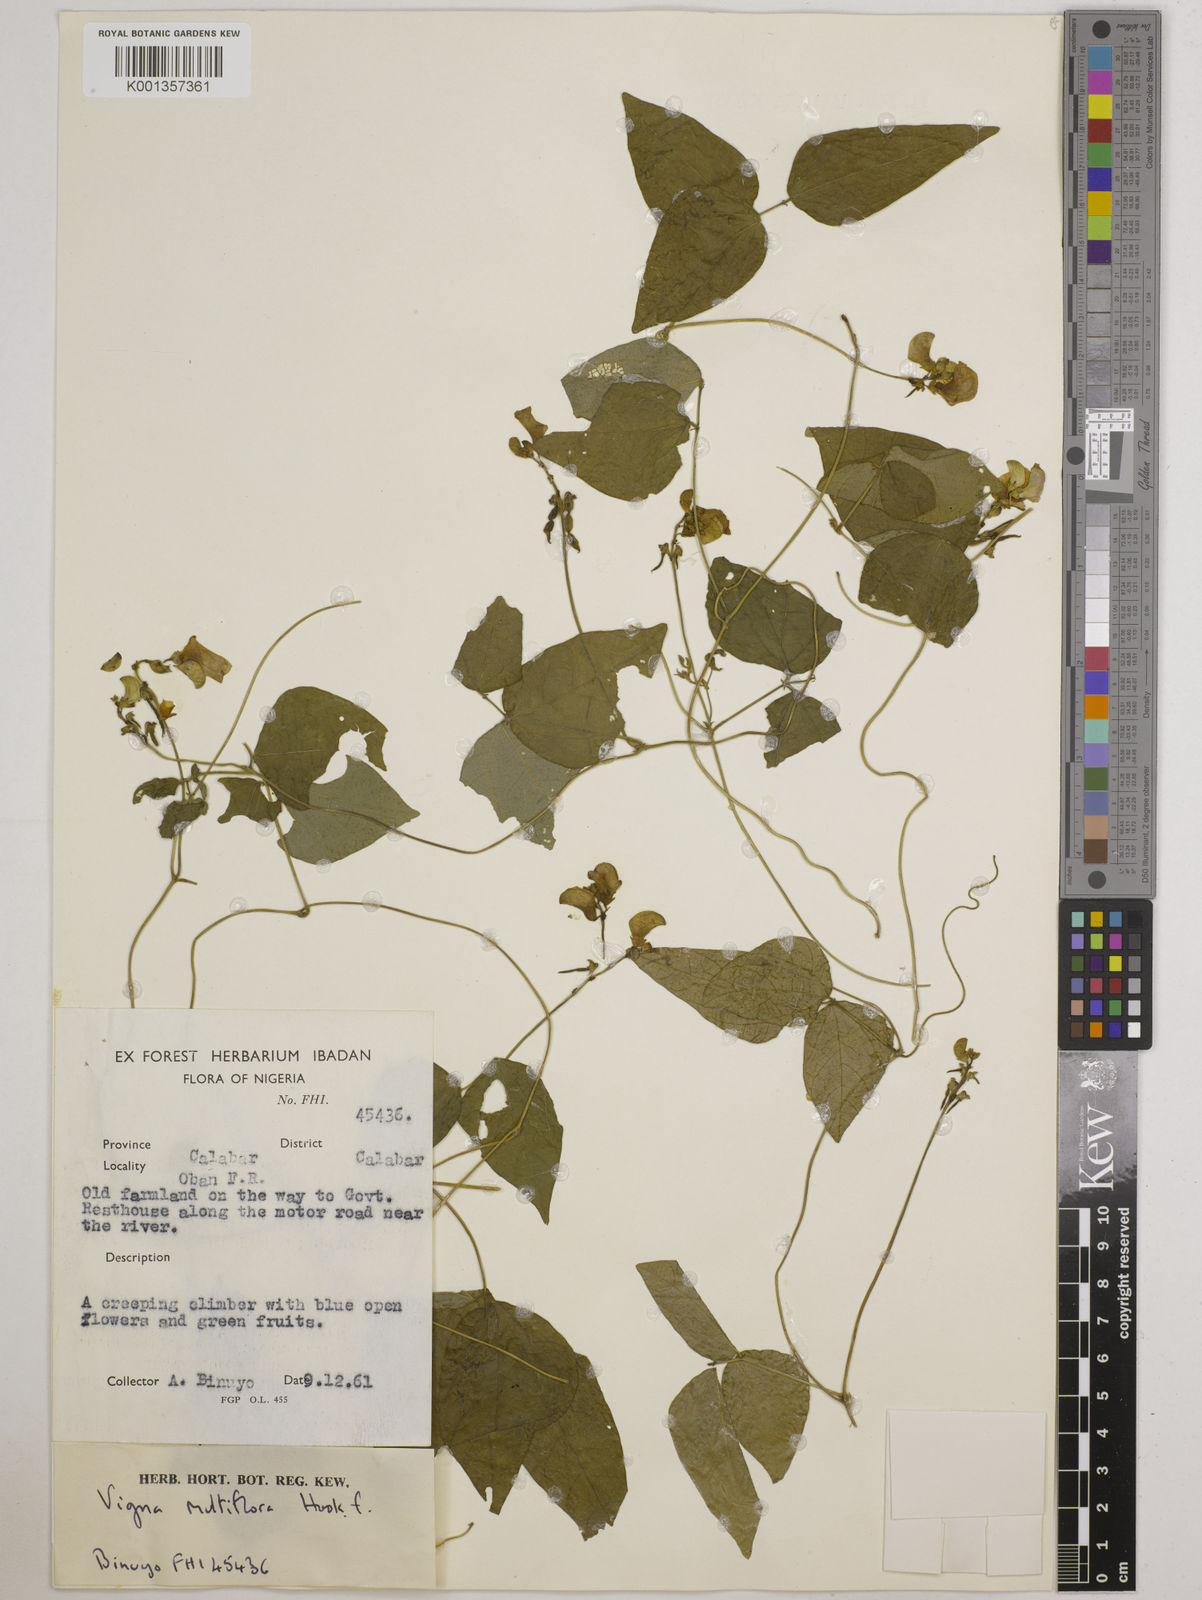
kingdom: Plantae
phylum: Tracheophyta
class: Magnoliopsida
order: Fabales
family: Fabaceae
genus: Vigna
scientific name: Vigna gracilis
